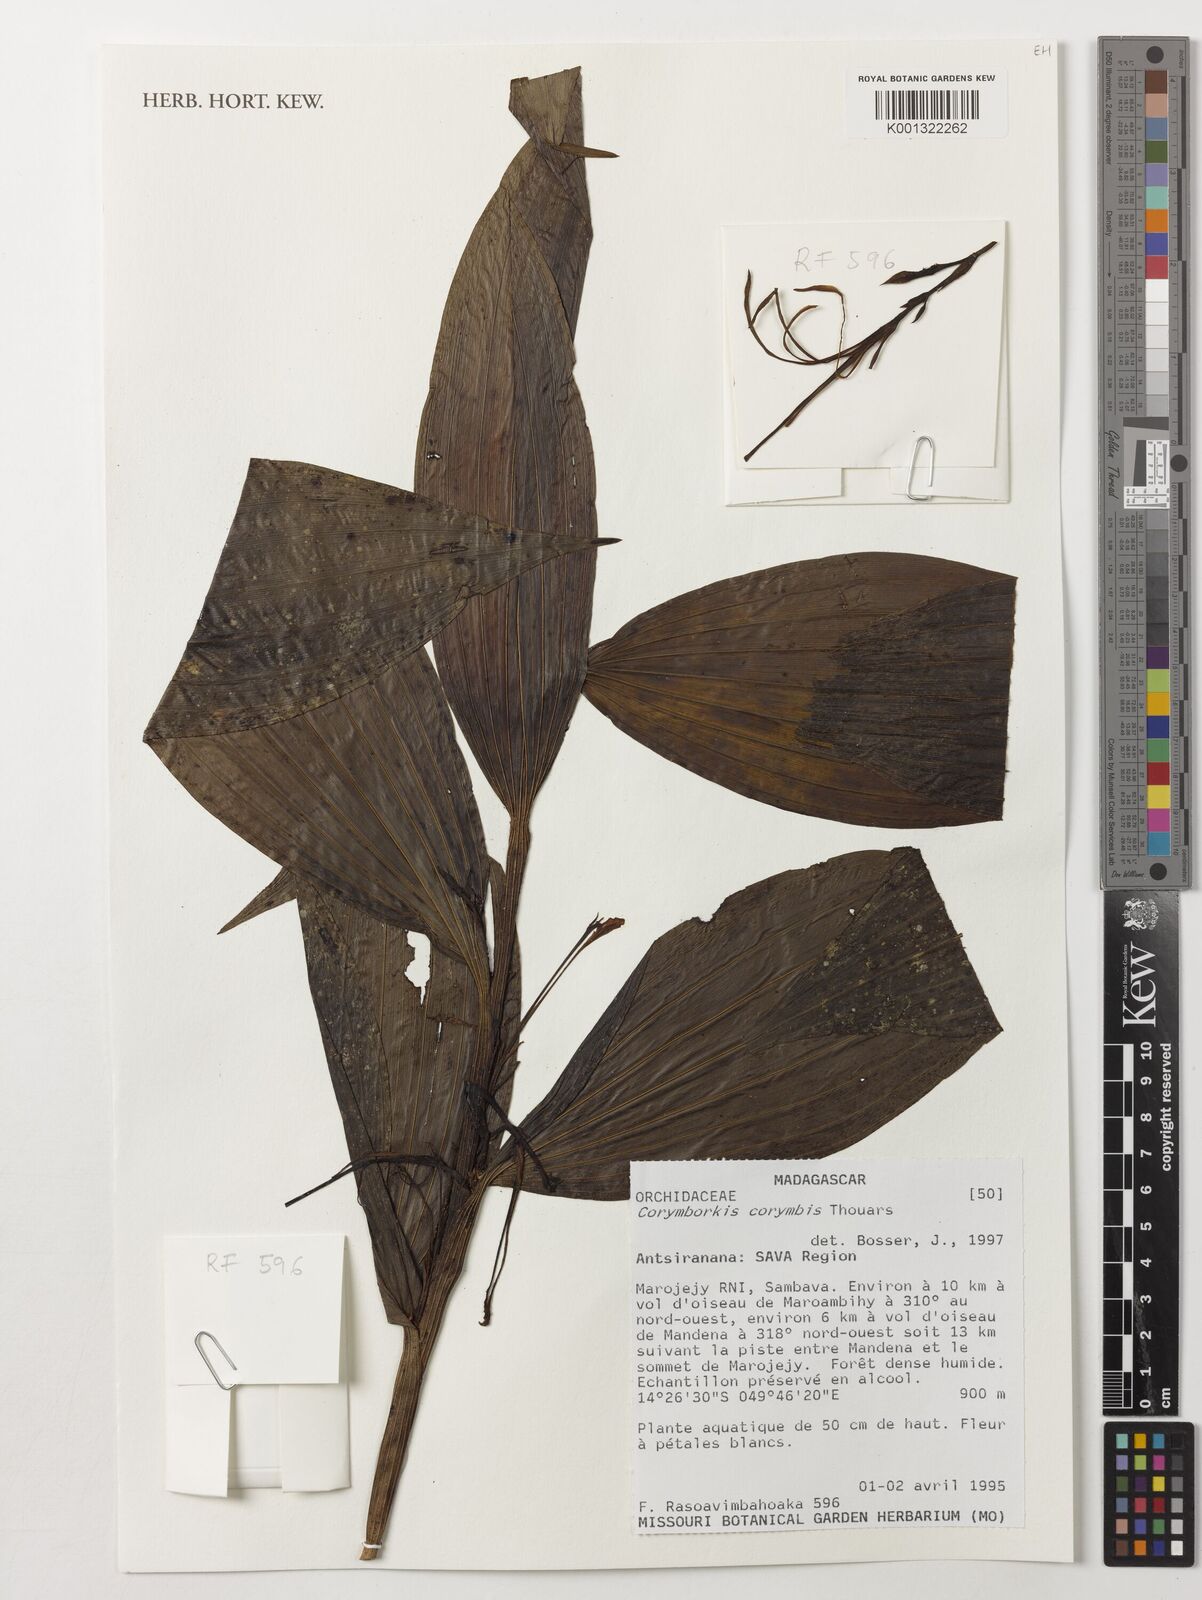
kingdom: Plantae
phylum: Tracheophyta
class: Liliopsida
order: Asparagales
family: Orchidaceae
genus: Corymborkis
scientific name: Corymborkis corymbis
